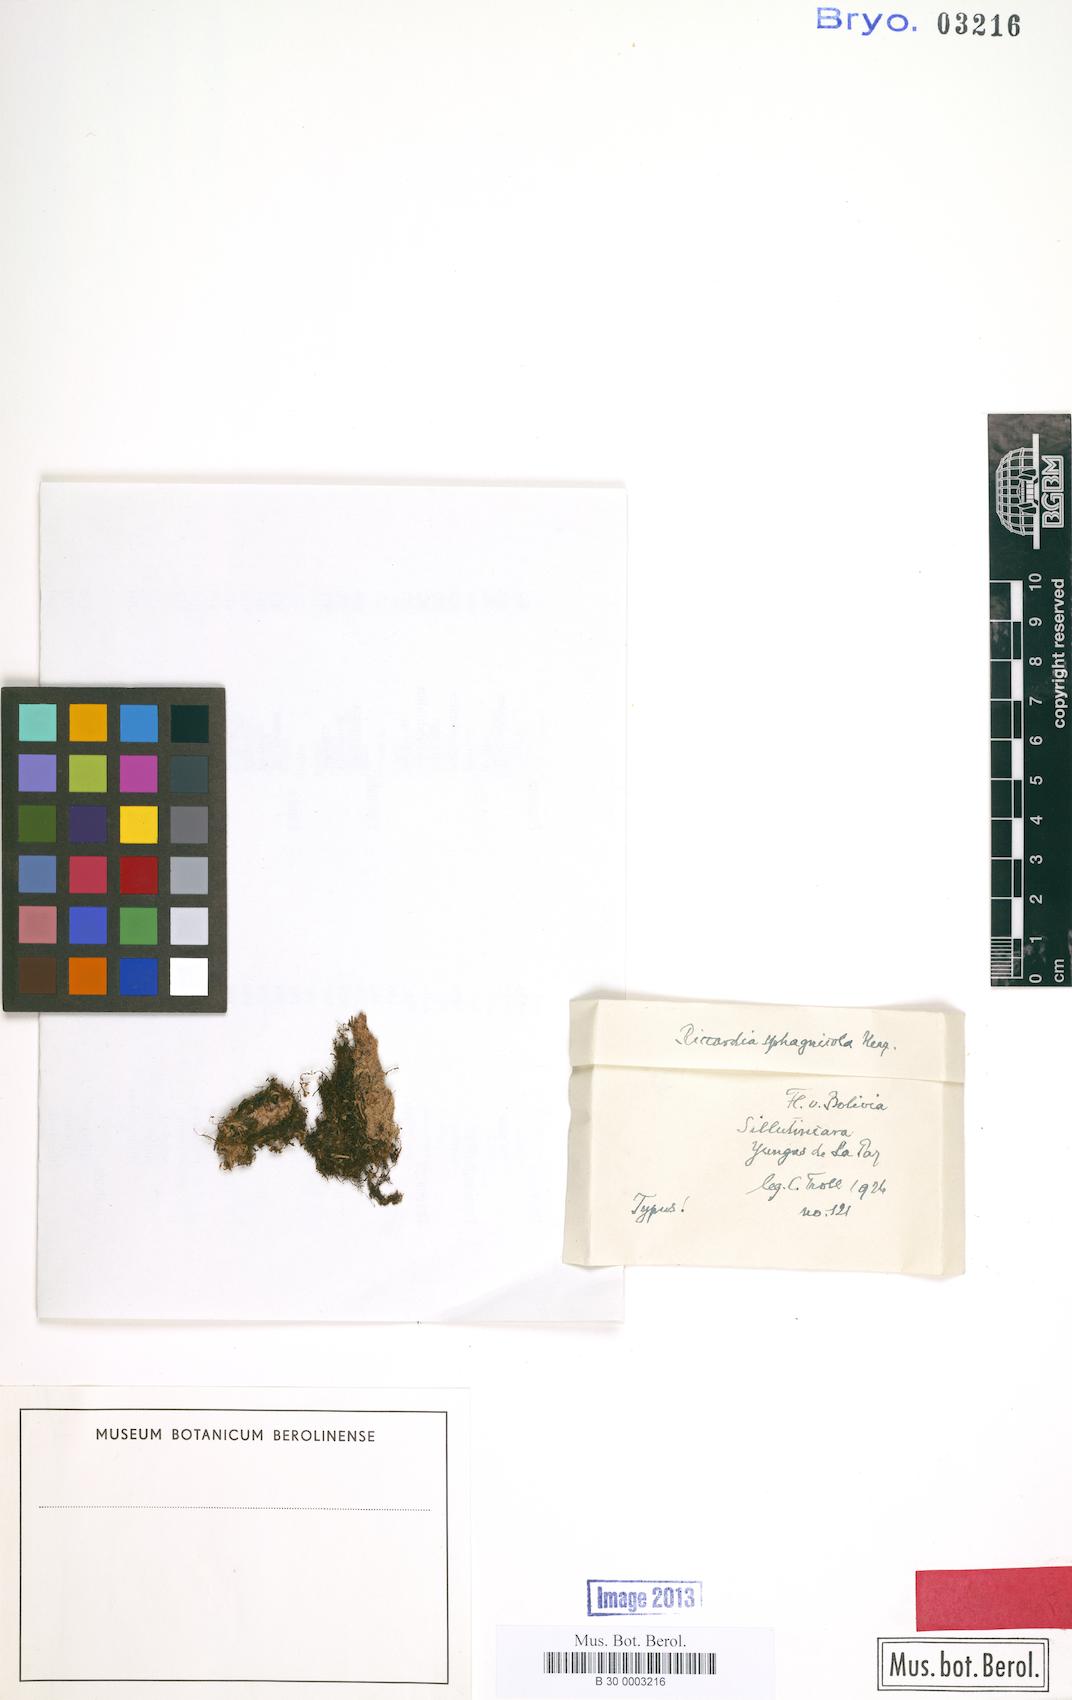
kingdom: Plantae
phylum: Marchantiophyta
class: Jungermanniopsida
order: Metzgeriales
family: Aneuraceae
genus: Riccardia
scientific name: Riccardia
